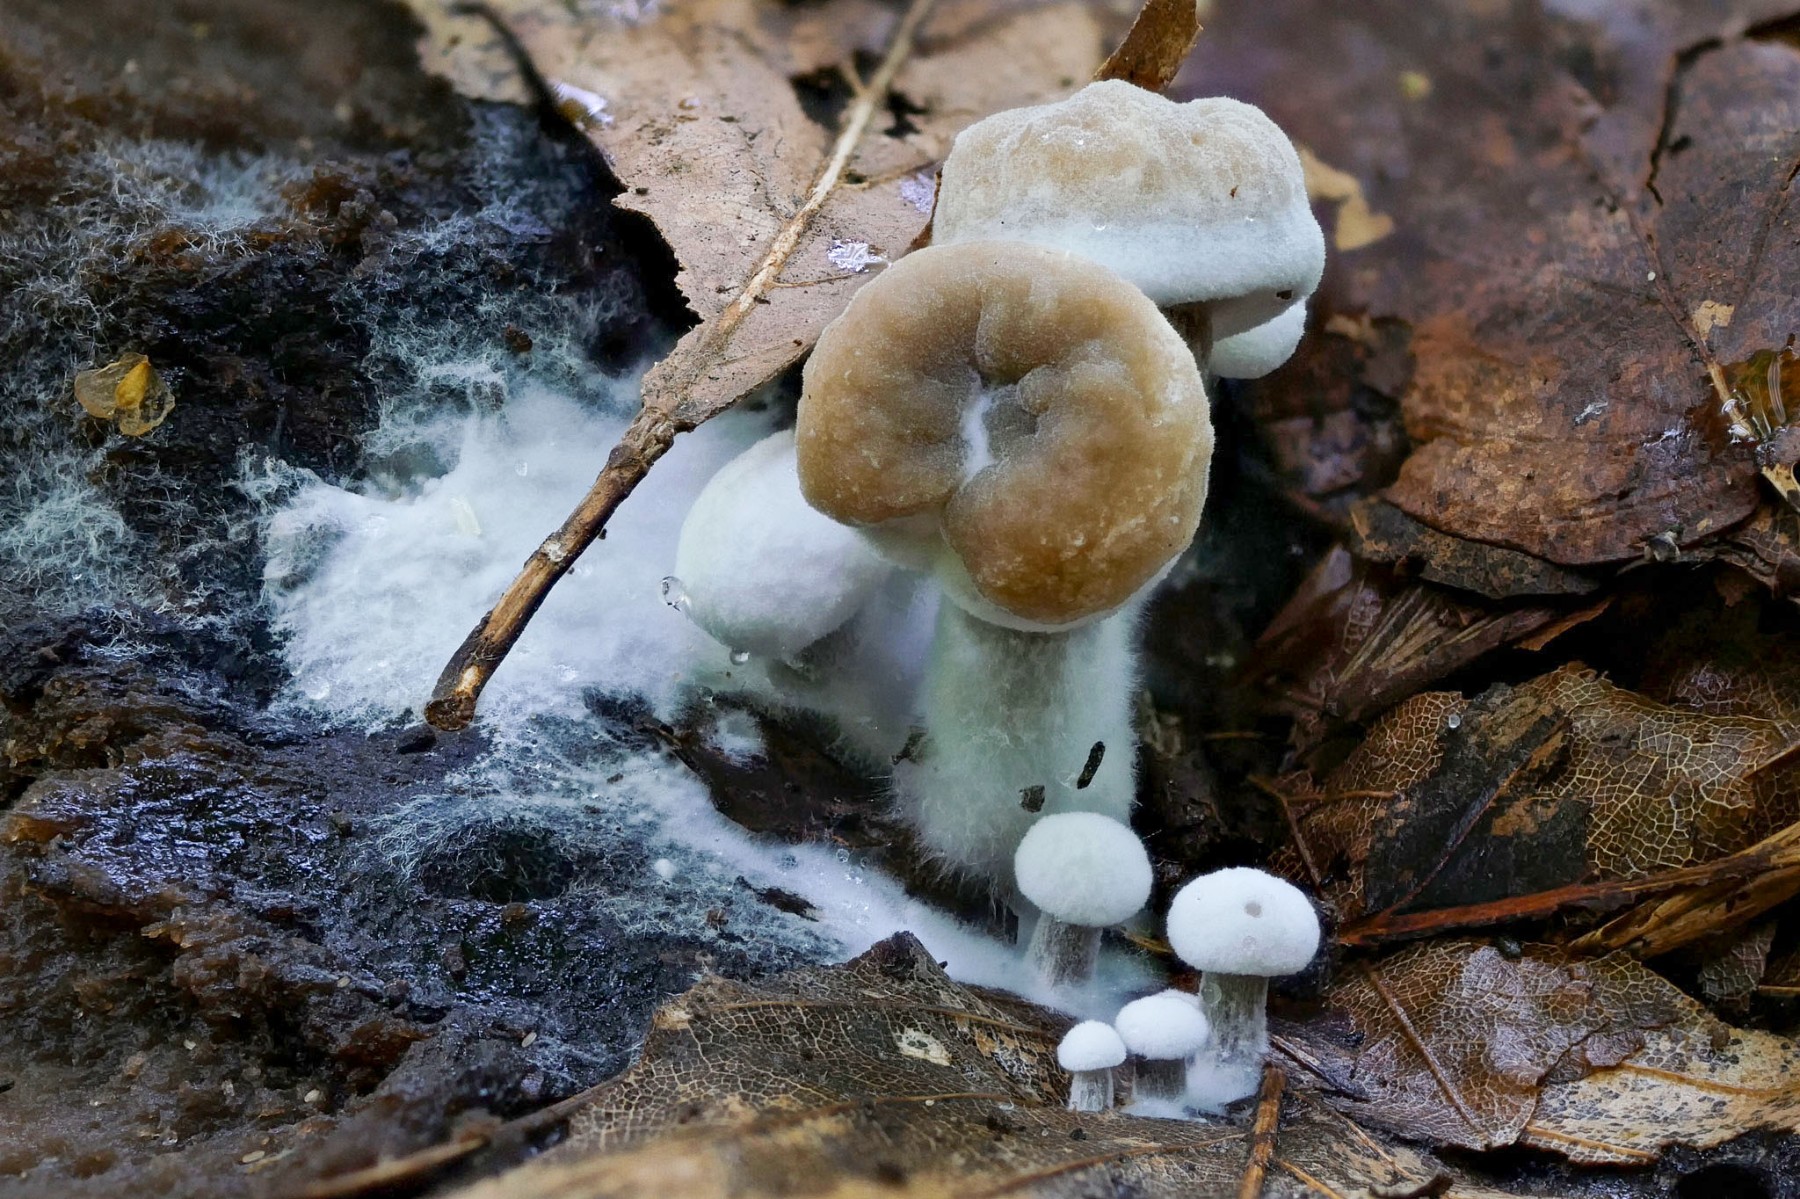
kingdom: Fungi
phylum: Basidiomycota
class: Agaricomycetes
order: Agaricales
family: Lyophyllaceae
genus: Asterophora
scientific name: Asterophora lycoperdoides
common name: brunpudret snyltehat
